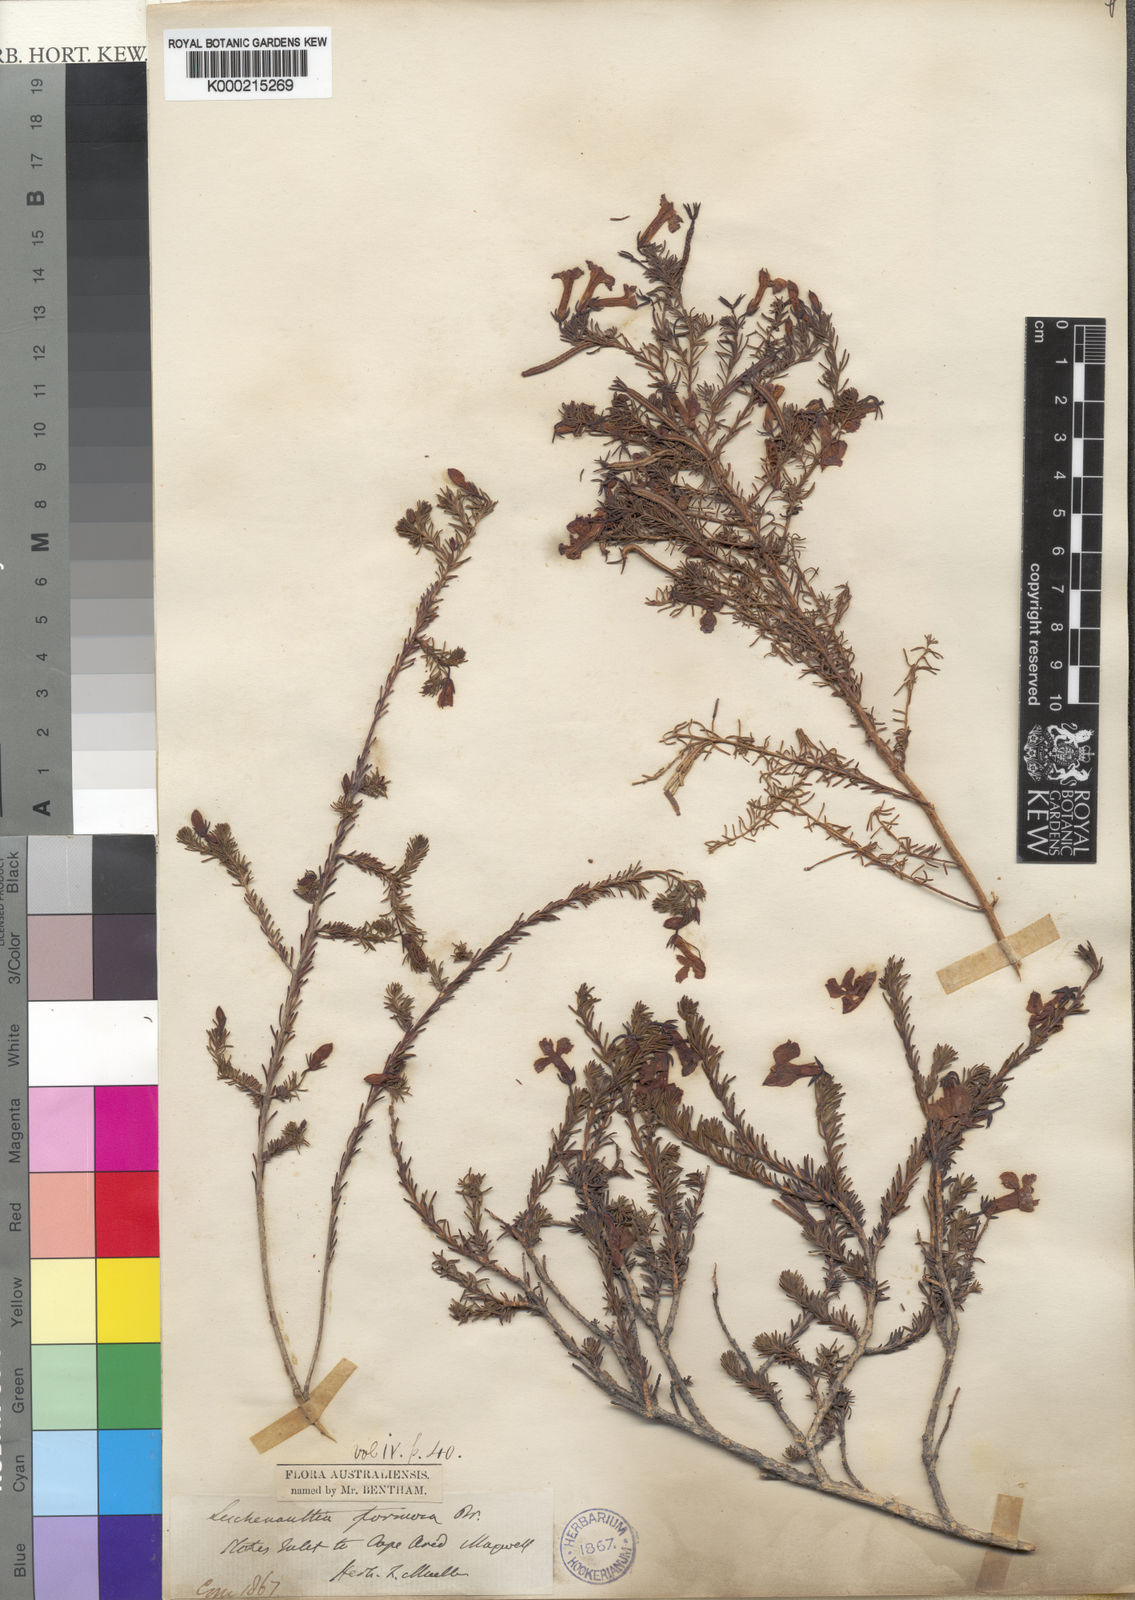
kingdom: Plantae
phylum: Tracheophyta
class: Magnoliopsida
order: Asterales
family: Goodeniaceae
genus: Leschenaultia
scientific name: Leschenaultia formosa
